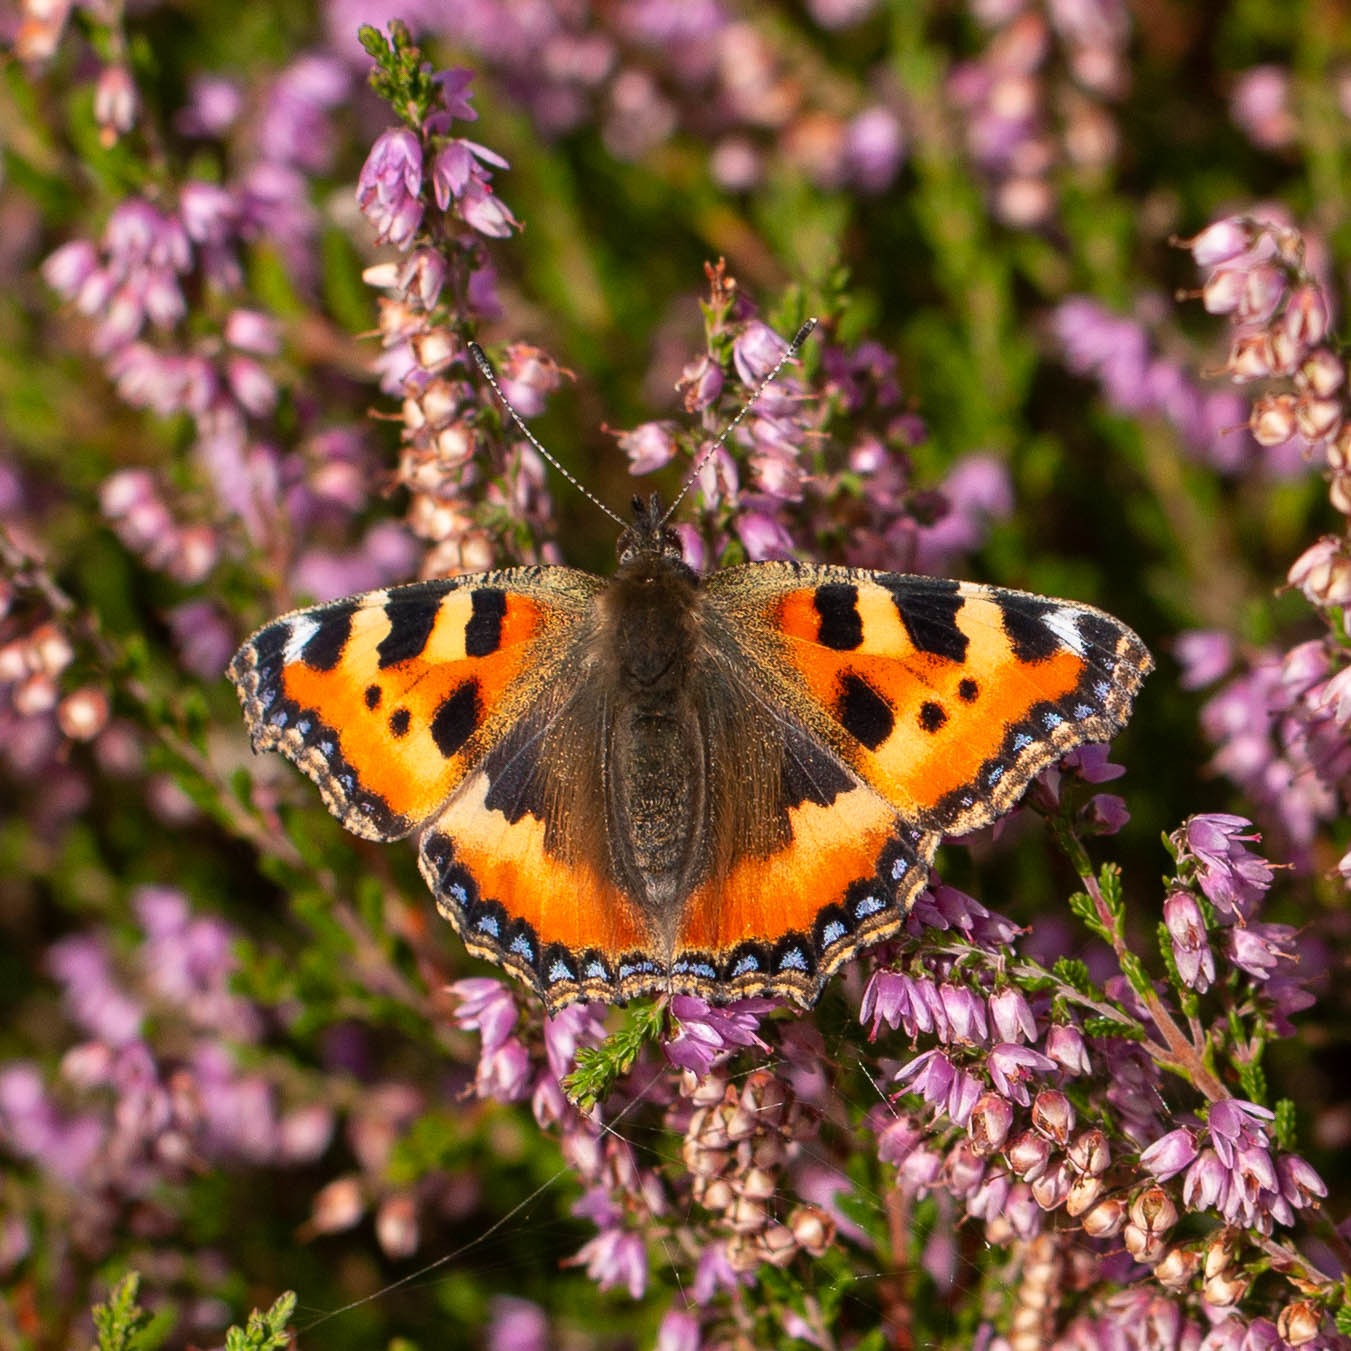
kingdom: Animalia
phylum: Arthropoda
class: Insecta
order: Lepidoptera
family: Nymphalidae
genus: Aglais
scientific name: Aglais urticae
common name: Nældens takvinge
